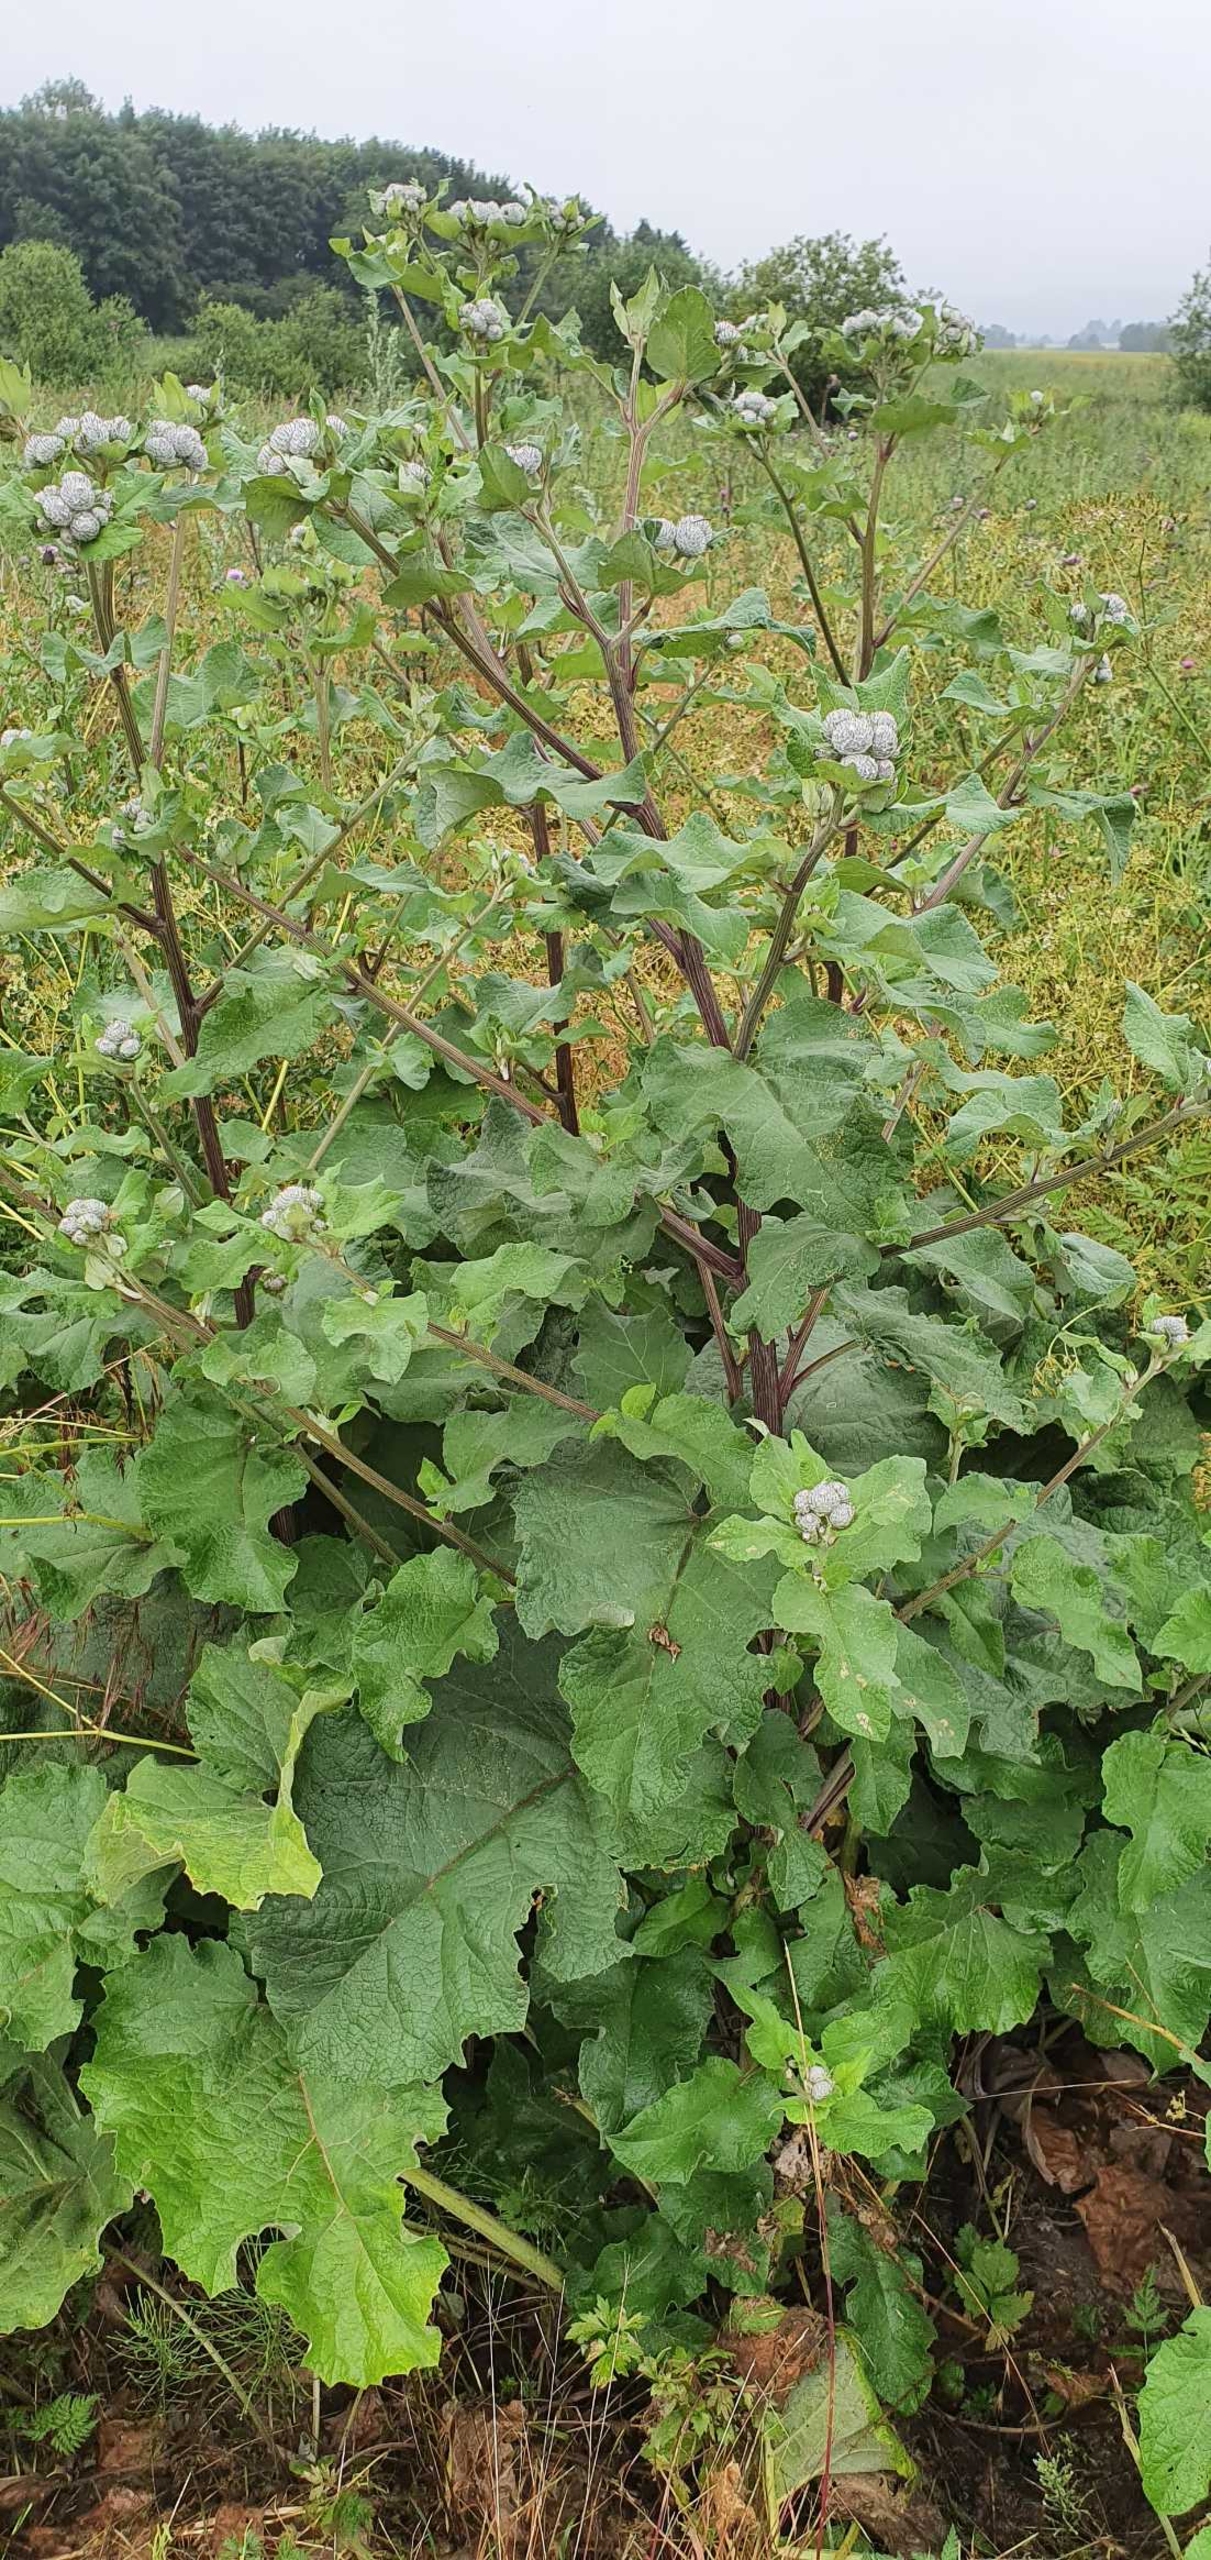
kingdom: Plantae
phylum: Tracheophyta
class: Magnoliopsida
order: Asterales
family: Asteraceae
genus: Arctium
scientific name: Arctium tomentosum
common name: Filtet burre
